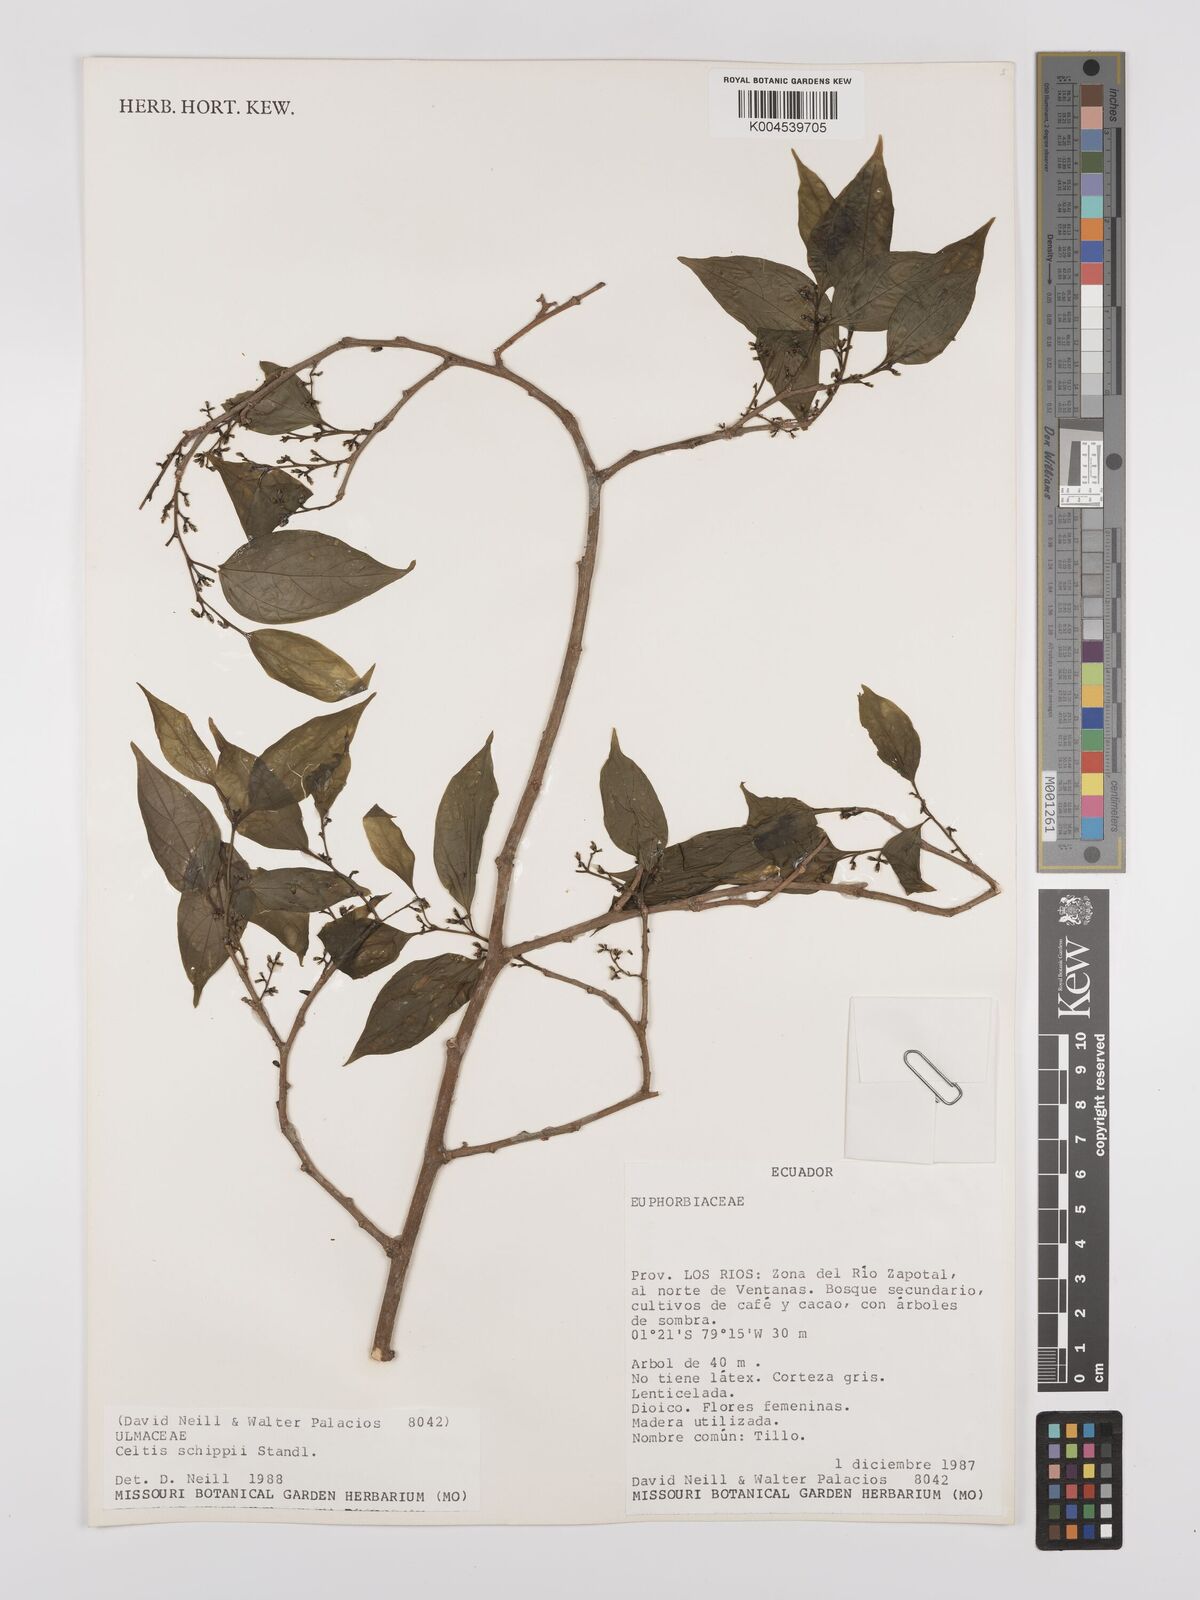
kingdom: Plantae
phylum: Tracheophyta
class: Magnoliopsida
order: Rosales
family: Cannabaceae
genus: Celtis
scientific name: Celtis schippii
